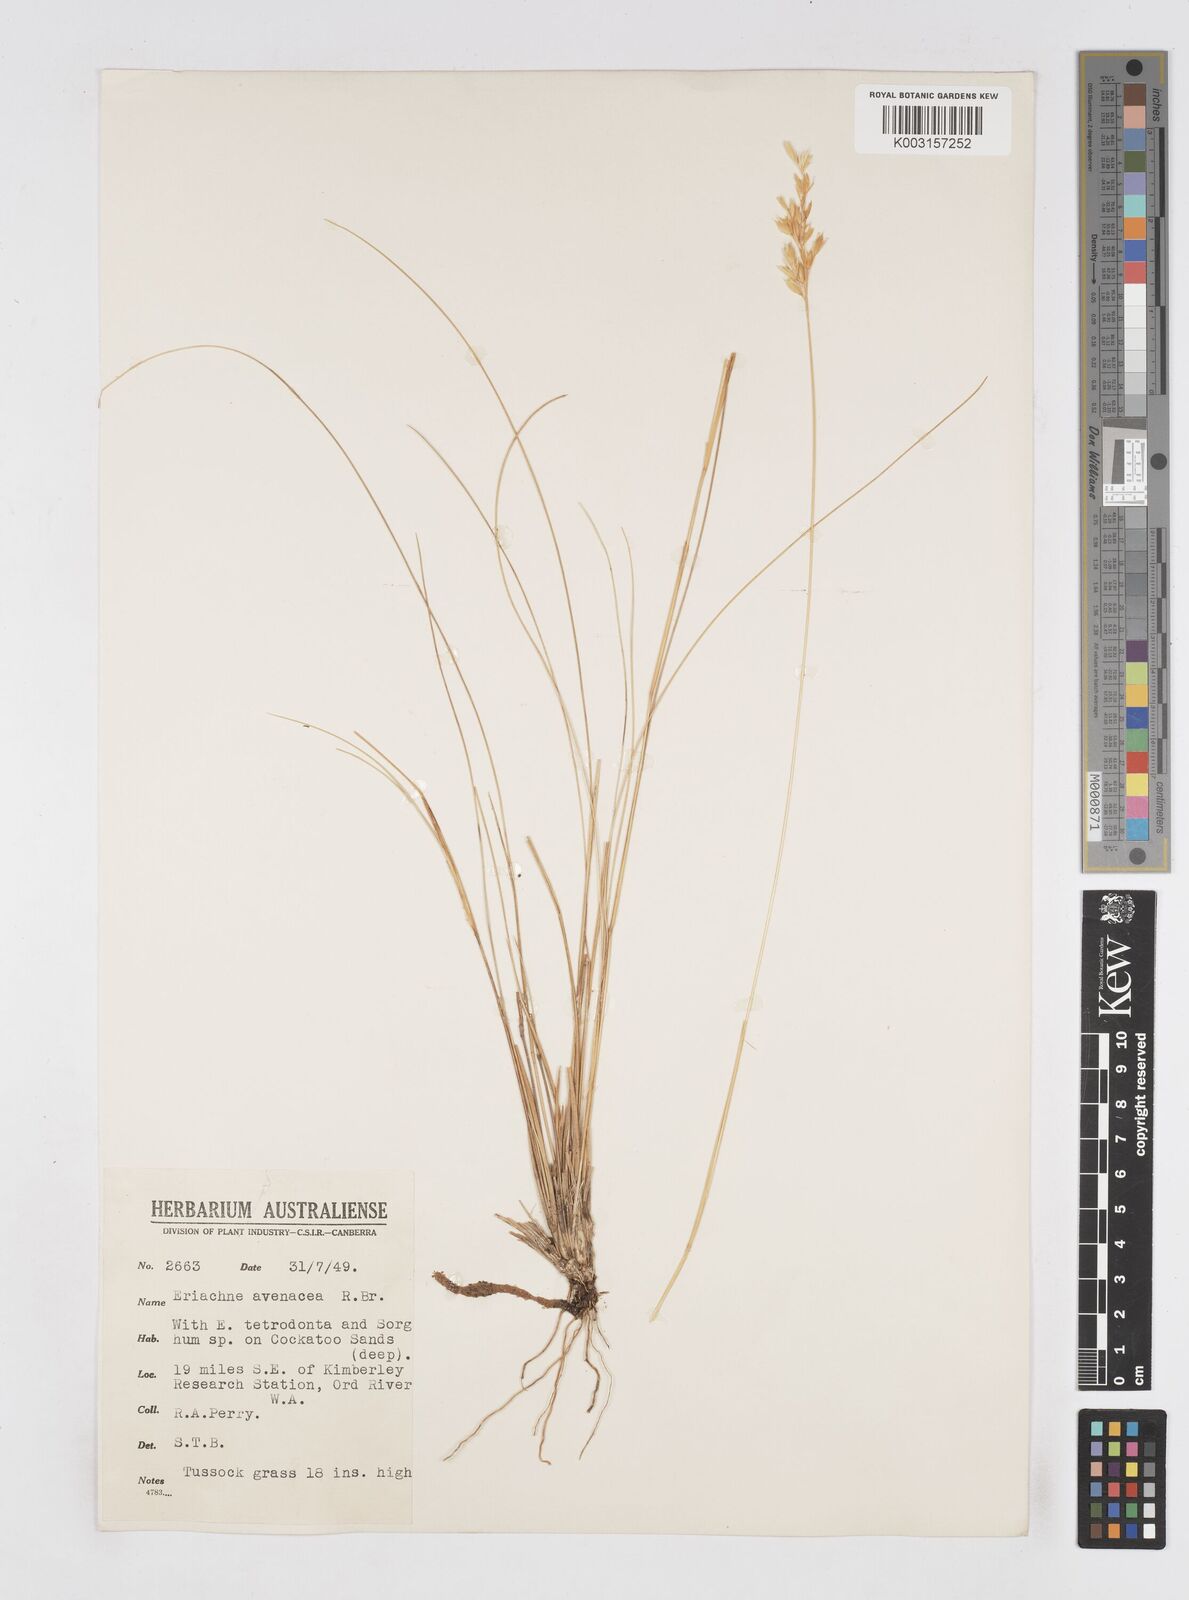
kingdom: Plantae
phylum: Tracheophyta
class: Liliopsida
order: Poales
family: Poaceae
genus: Eriachne
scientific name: Eriachne avenacea
